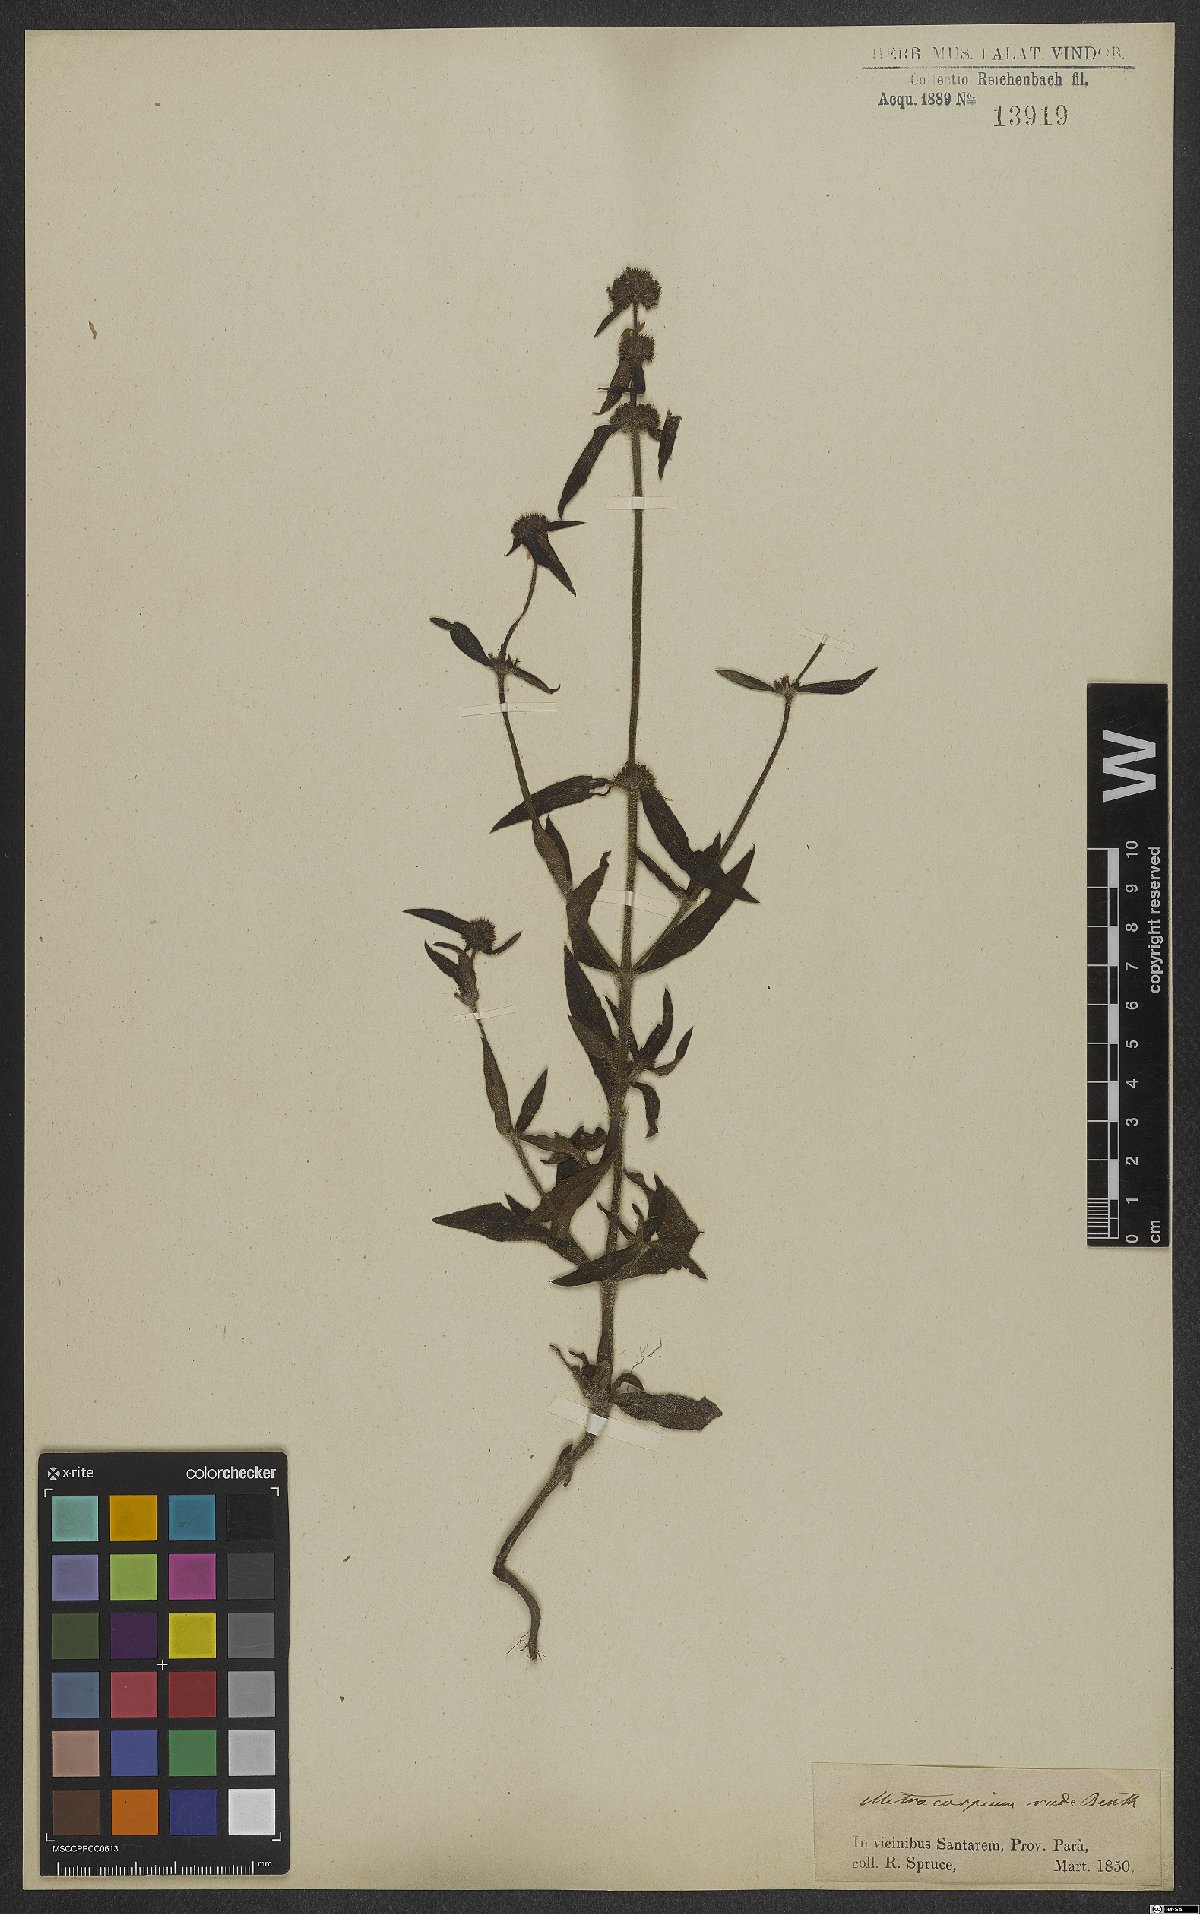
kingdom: Plantae
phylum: Tracheophyta
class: Magnoliopsida
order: Gentianales
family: Rubiaceae
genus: Mitracarpus
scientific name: Mitracarpus frigidus
